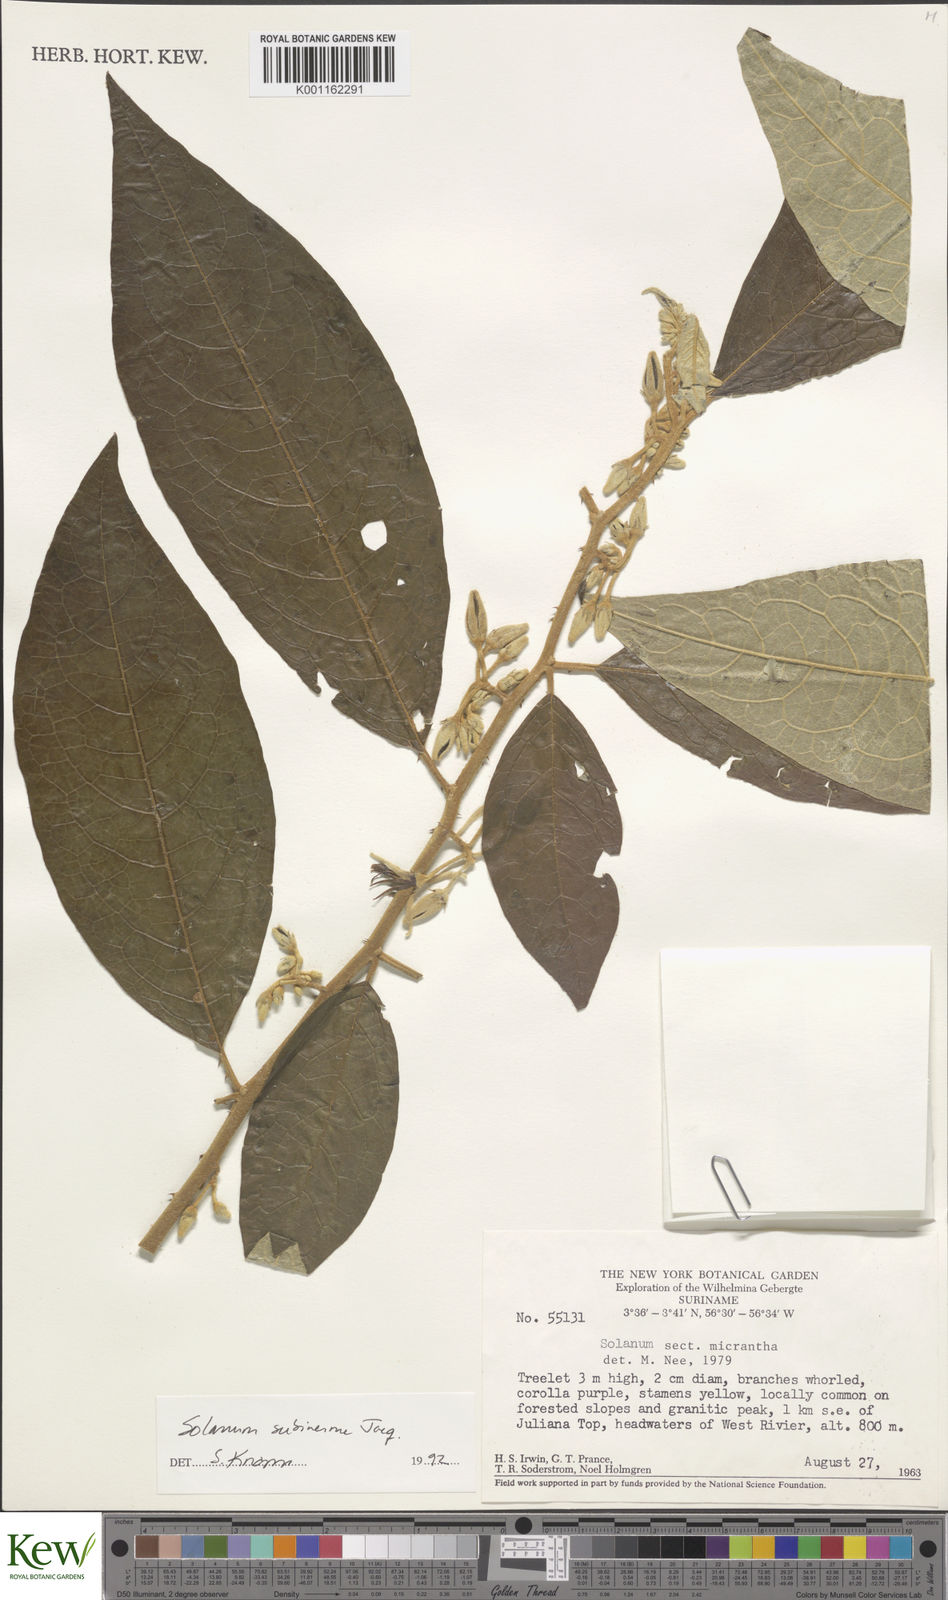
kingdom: Plantae
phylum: Tracheophyta
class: Magnoliopsida
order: Solanales
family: Solanaceae
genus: Solanum
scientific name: Solanum subinerme
